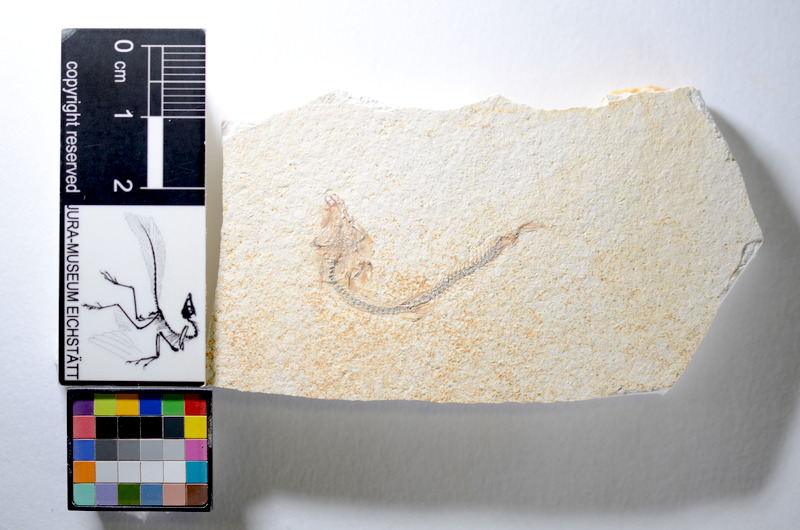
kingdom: Animalia
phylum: Chordata
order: Salmoniformes
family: Orthogonikleithridae
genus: Orthogonikleithrus
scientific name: Orthogonikleithrus hoelli
